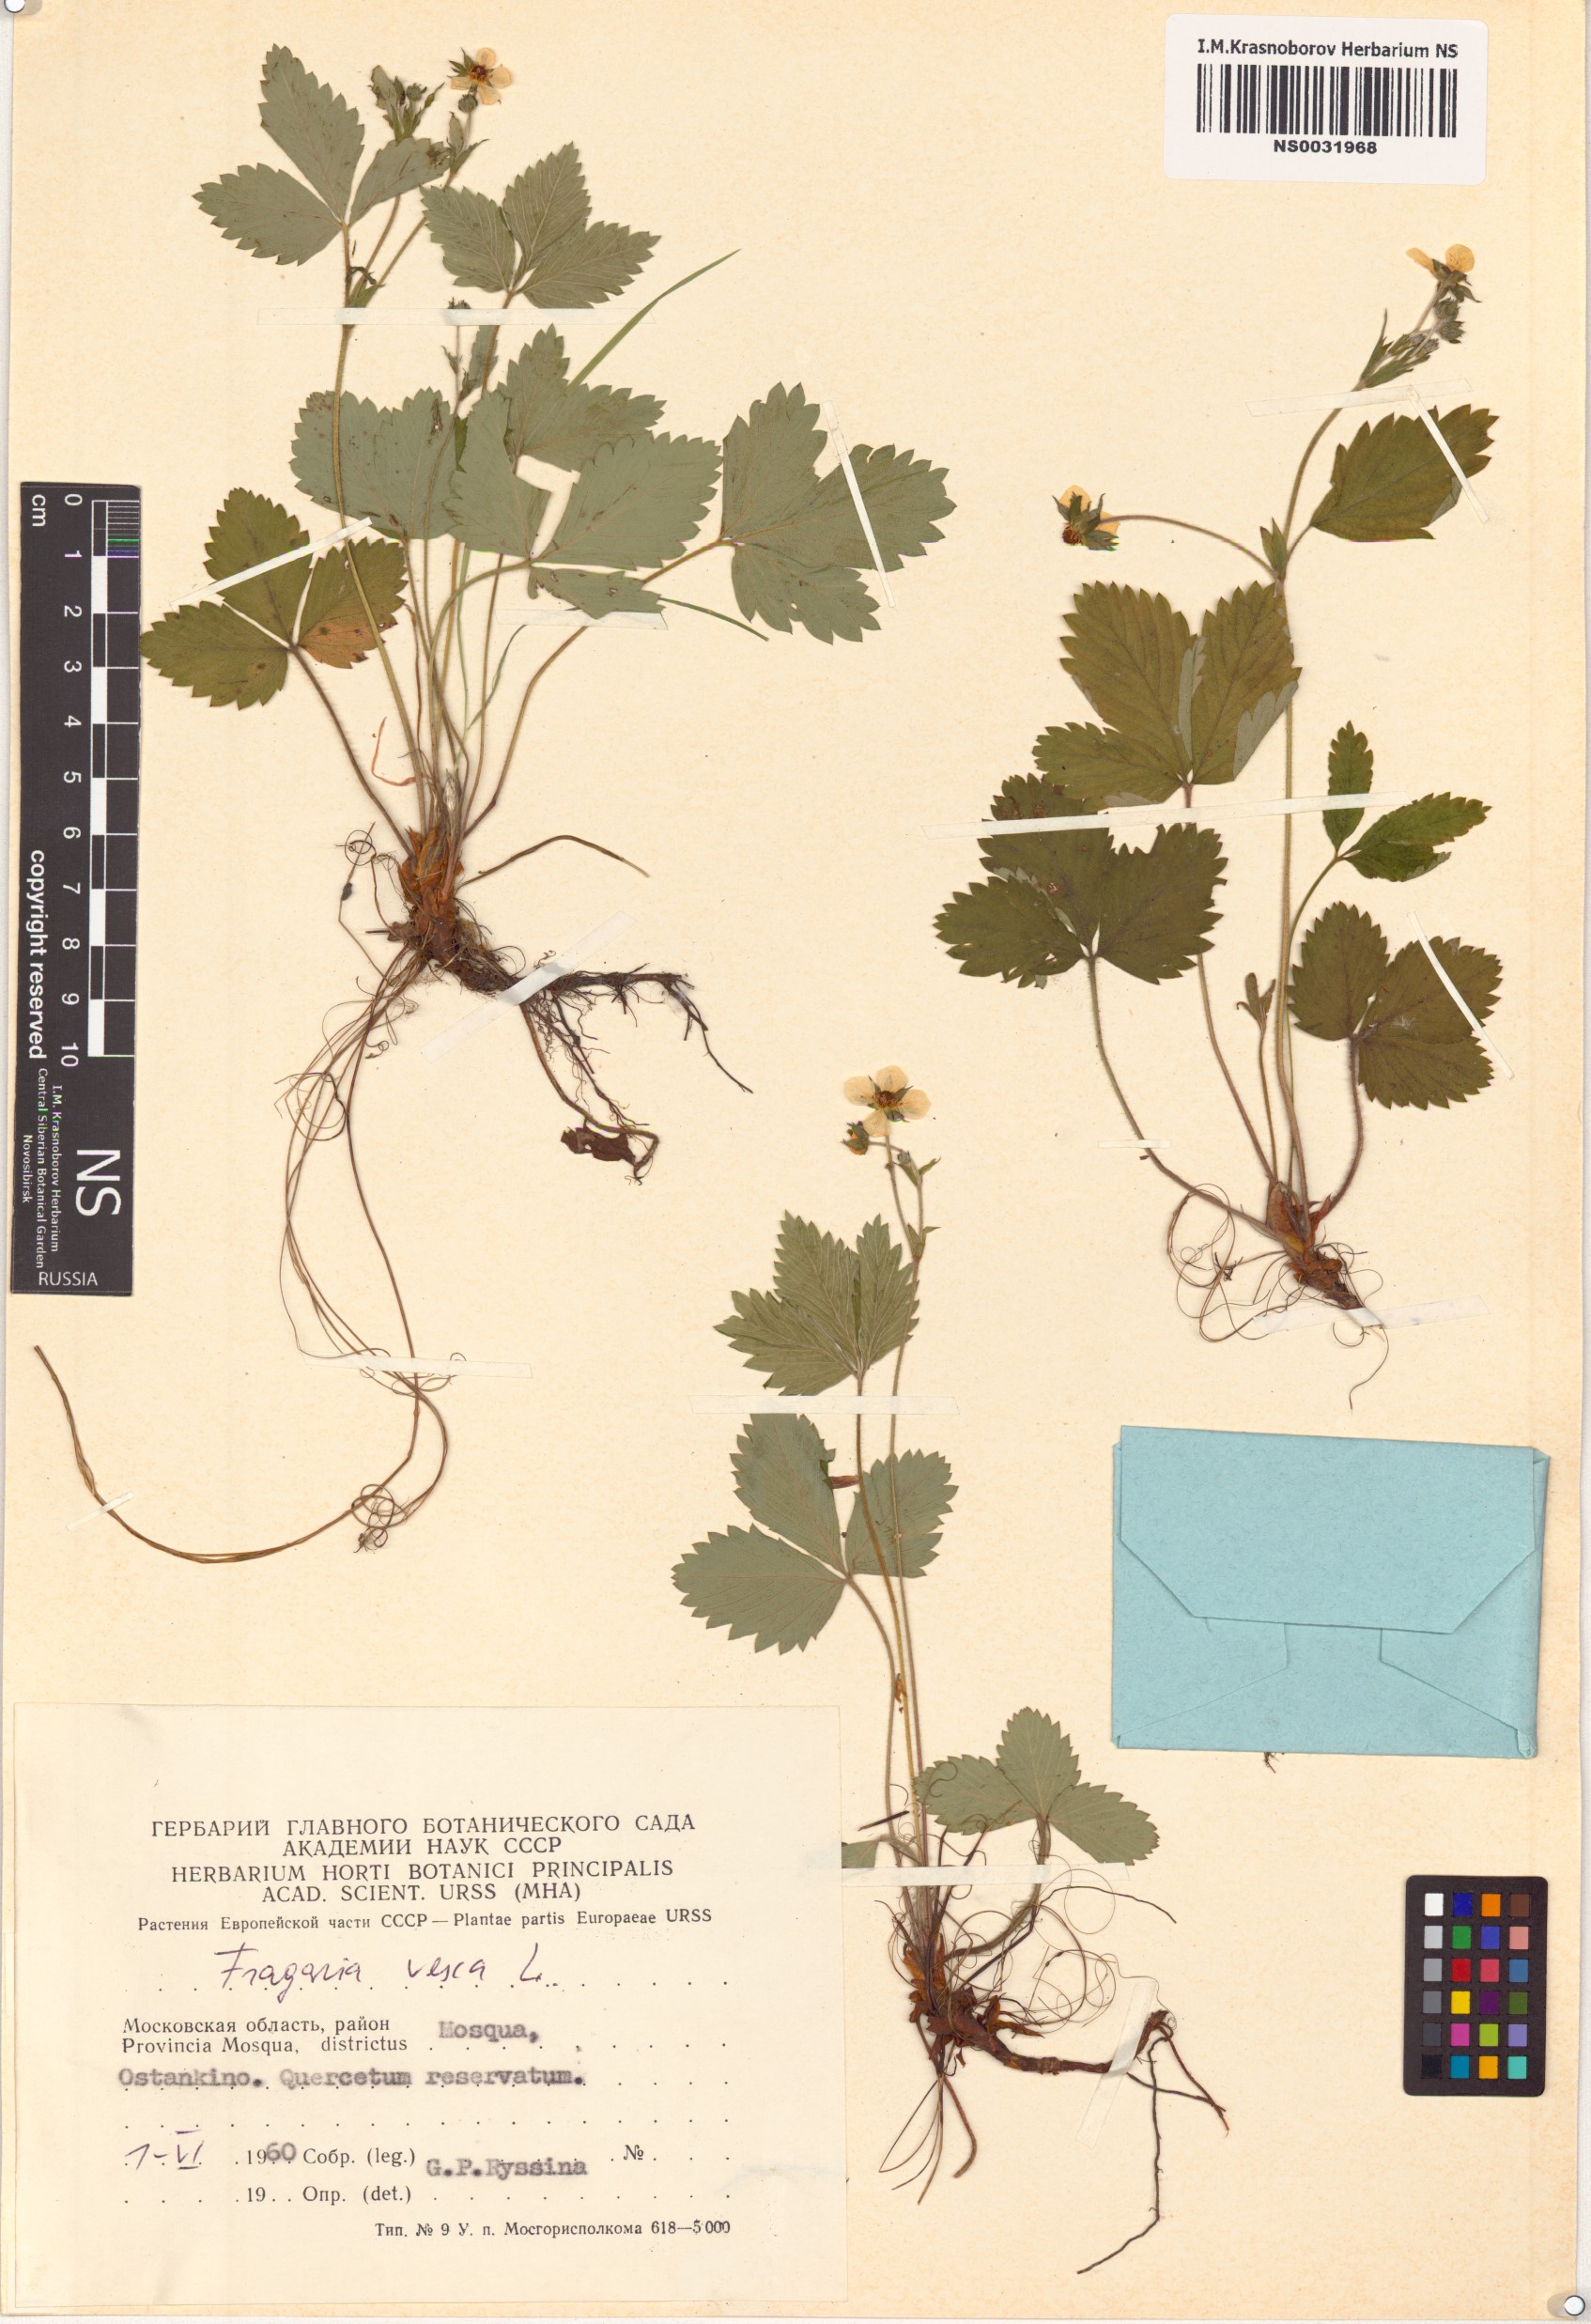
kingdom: Plantae
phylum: Tracheophyta
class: Magnoliopsida
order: Rosales
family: Rosaceae
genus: Fragaria
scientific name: Fragaria vesca
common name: Wild strawberry
